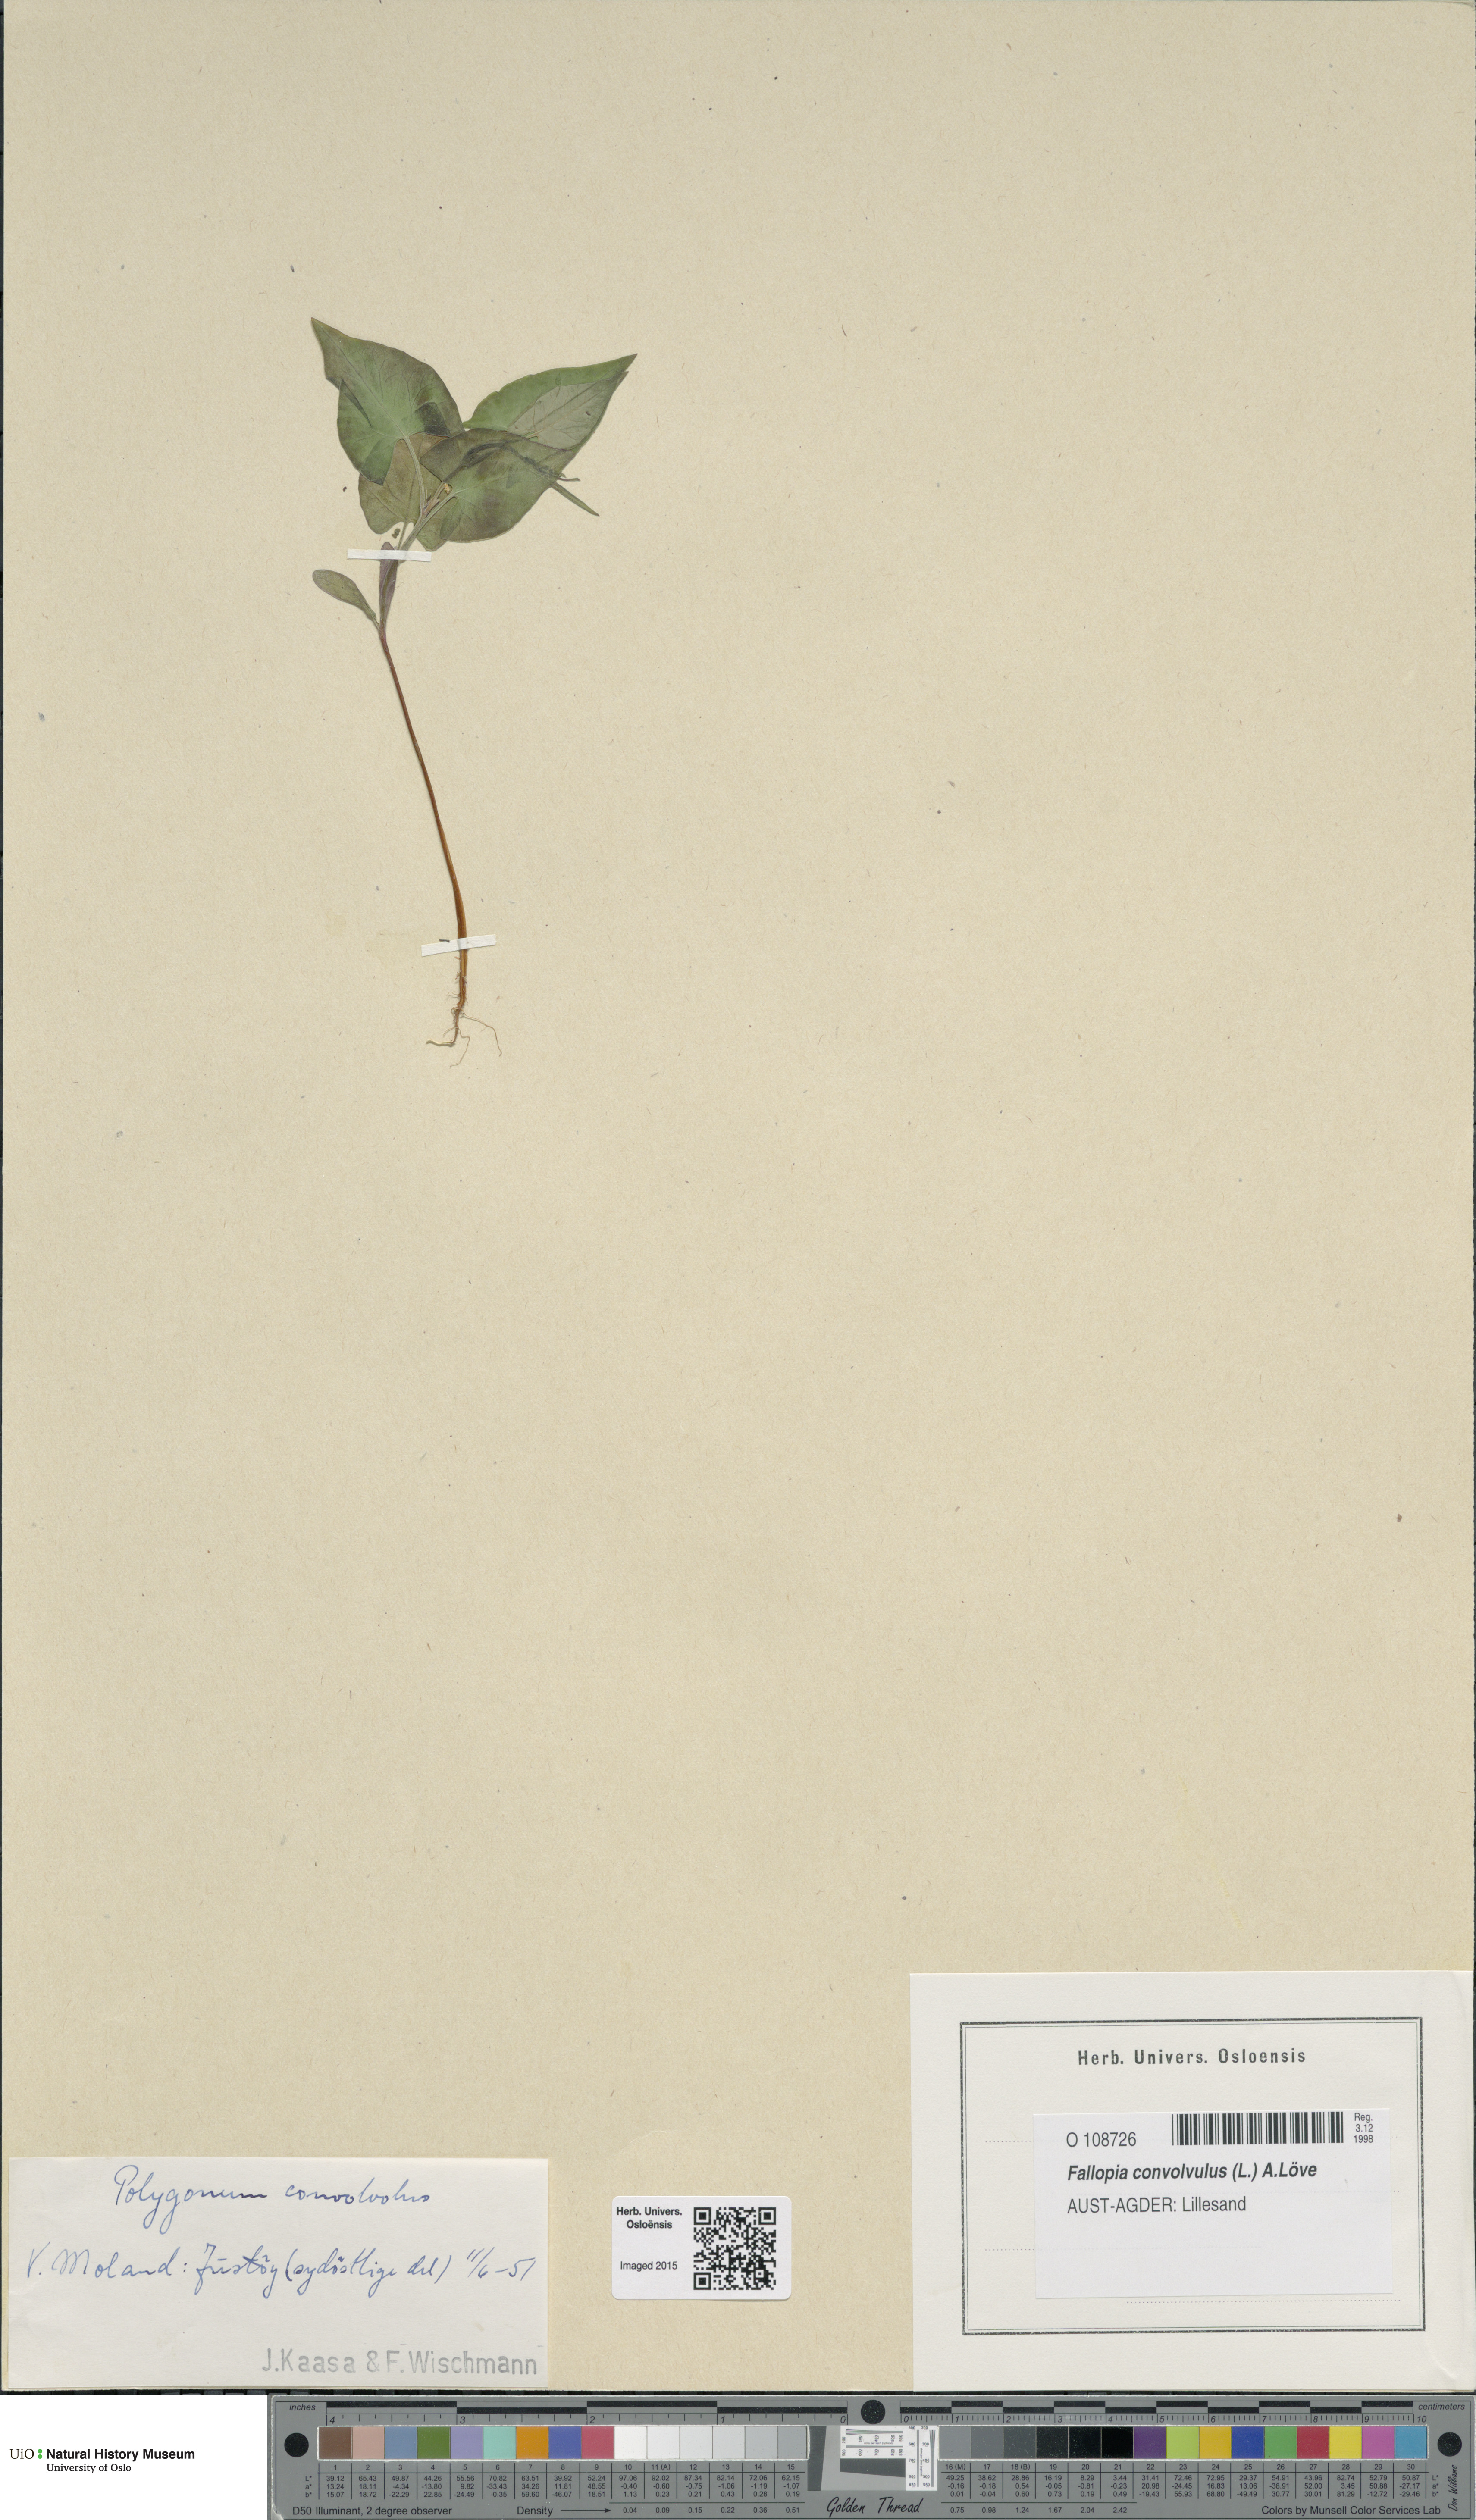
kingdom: Plantae
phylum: Tracheophyta
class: Magnoliopsida
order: Caryophyllales
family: Polygonaceae
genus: Fallopia
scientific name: Fallopia convolvulus
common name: Black bindweed
